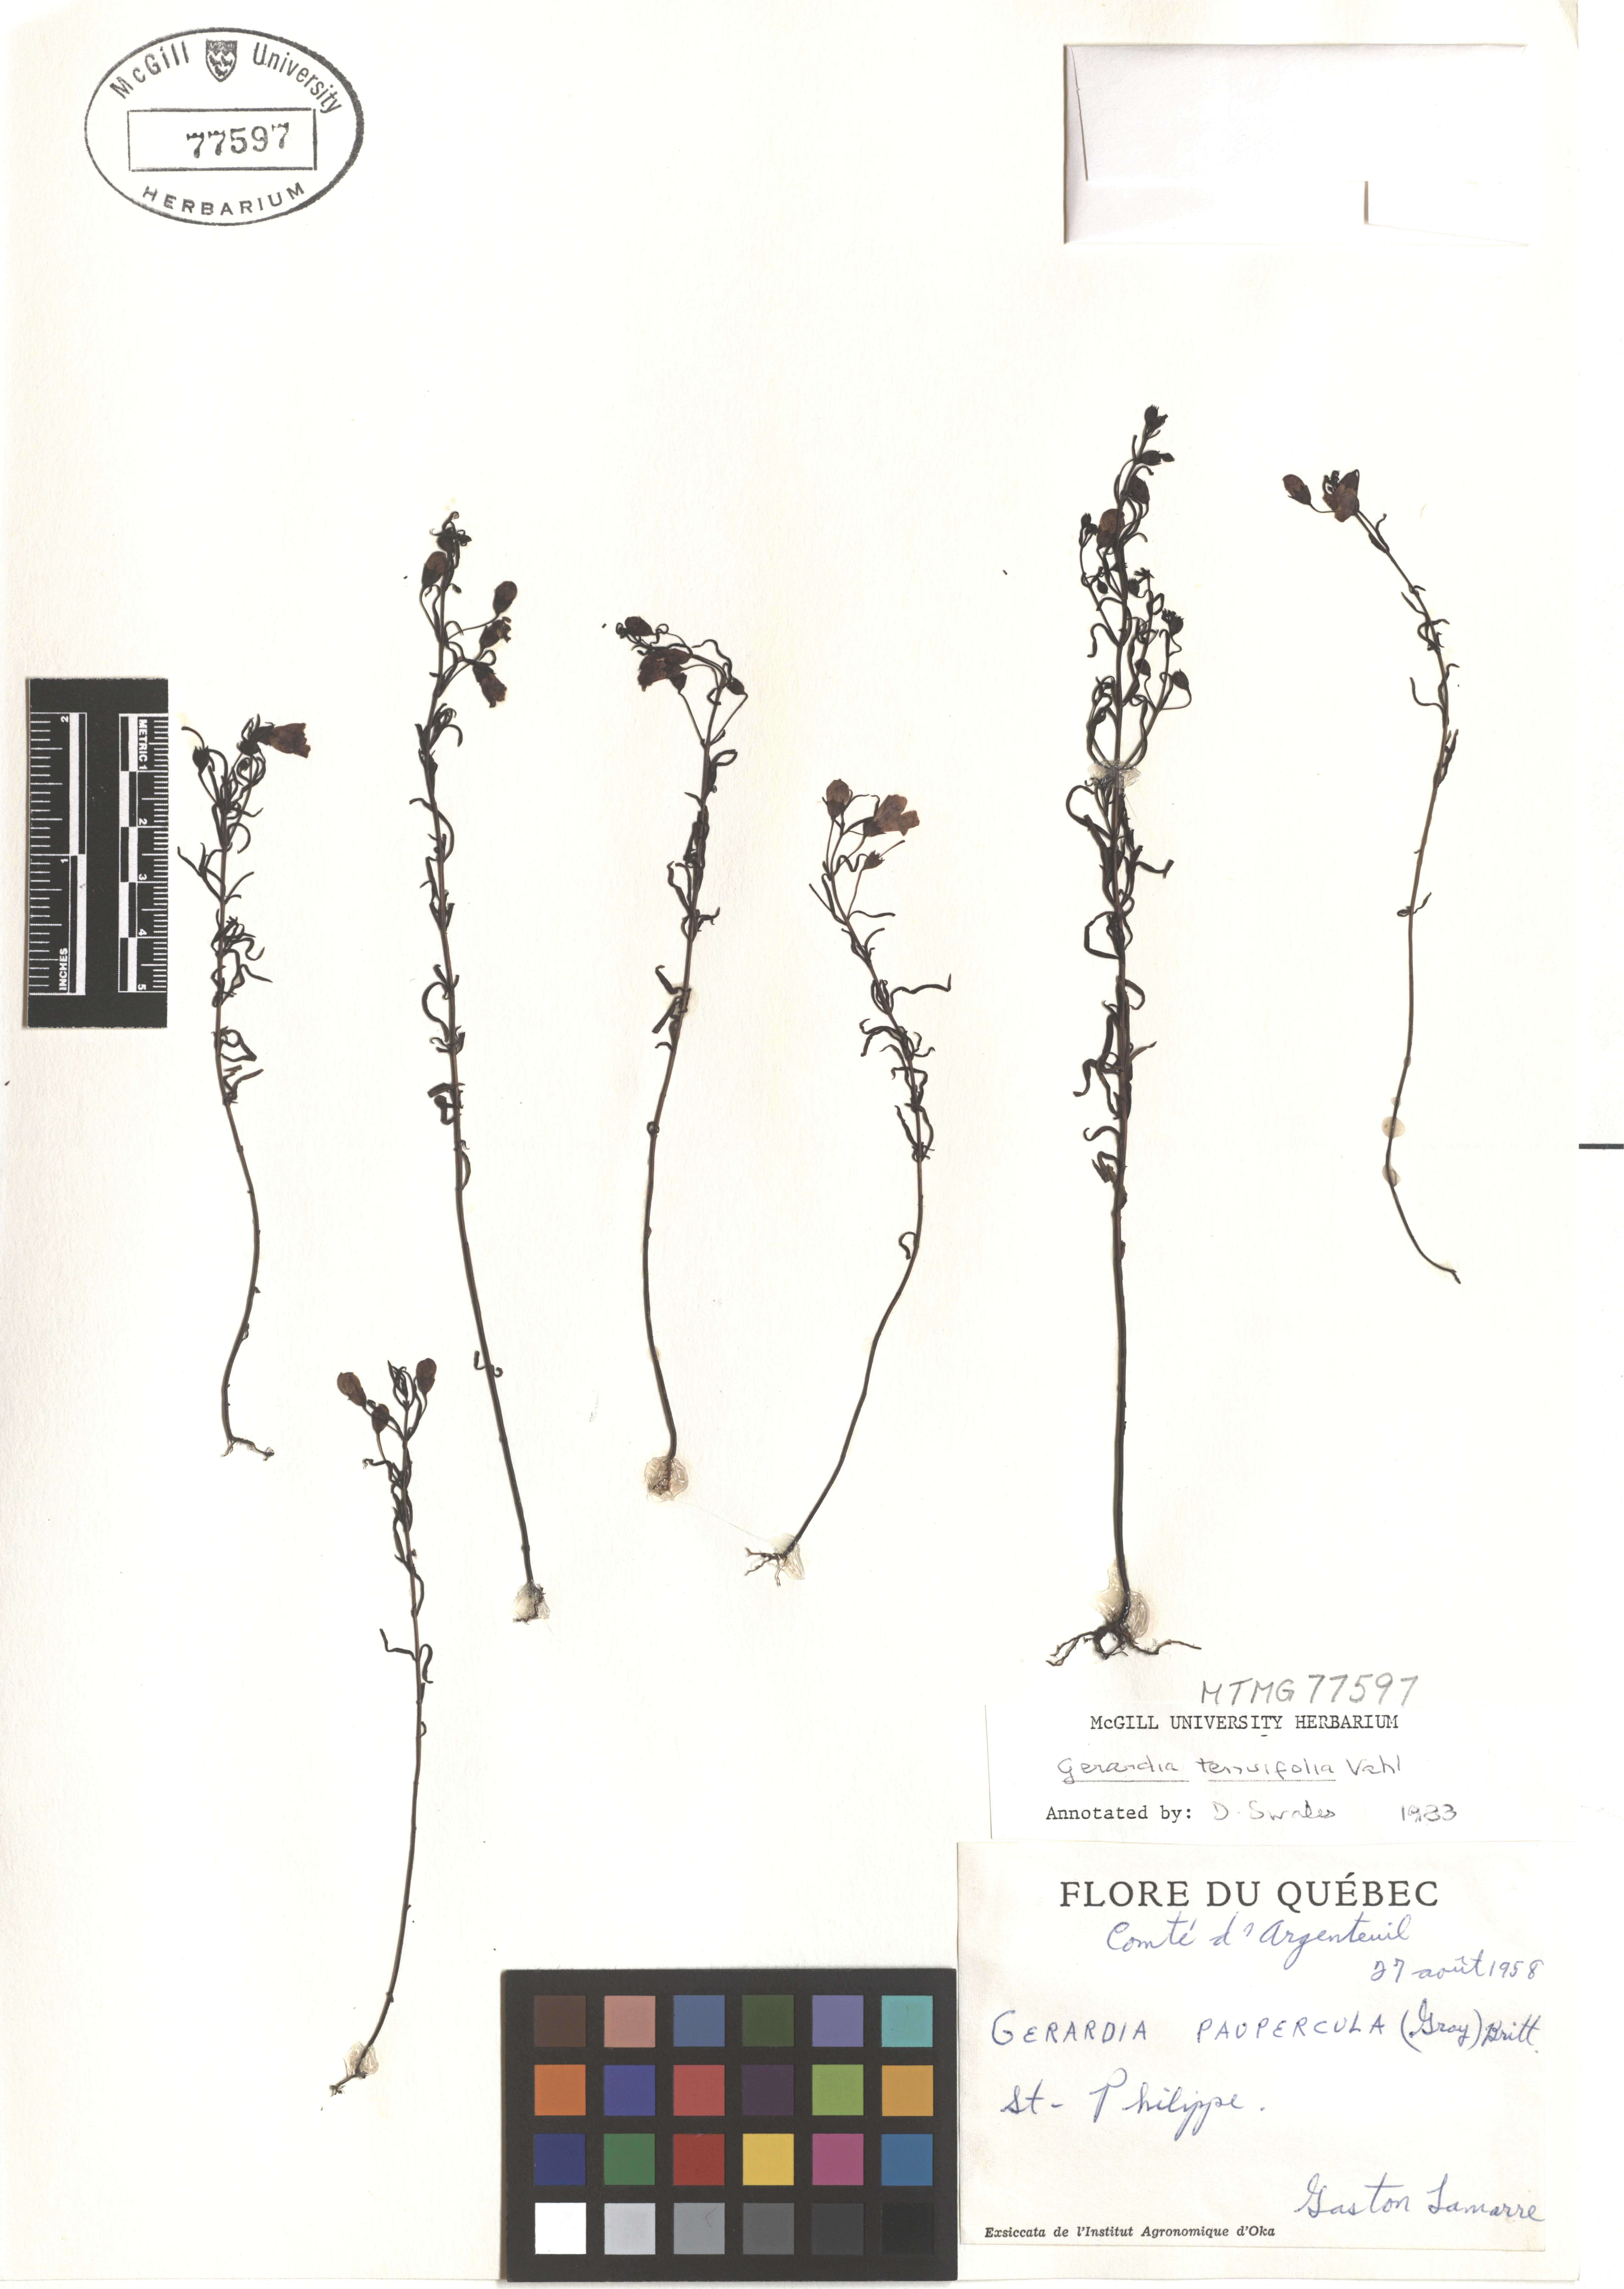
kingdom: Plantae
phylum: Tracheophyta
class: Magnoliopsida
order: Lamiales
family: Orobanchaceae
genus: Agalinis
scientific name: Agalinis tenuifolia
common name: Slender agalinis
